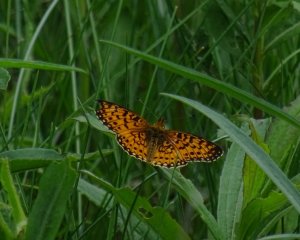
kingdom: Animalia
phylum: Arthropoda
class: Insecta
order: Lepidoptera
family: Nymphalidae
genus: Boloria
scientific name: Boloria selene
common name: Silver-bordered Fritillary
